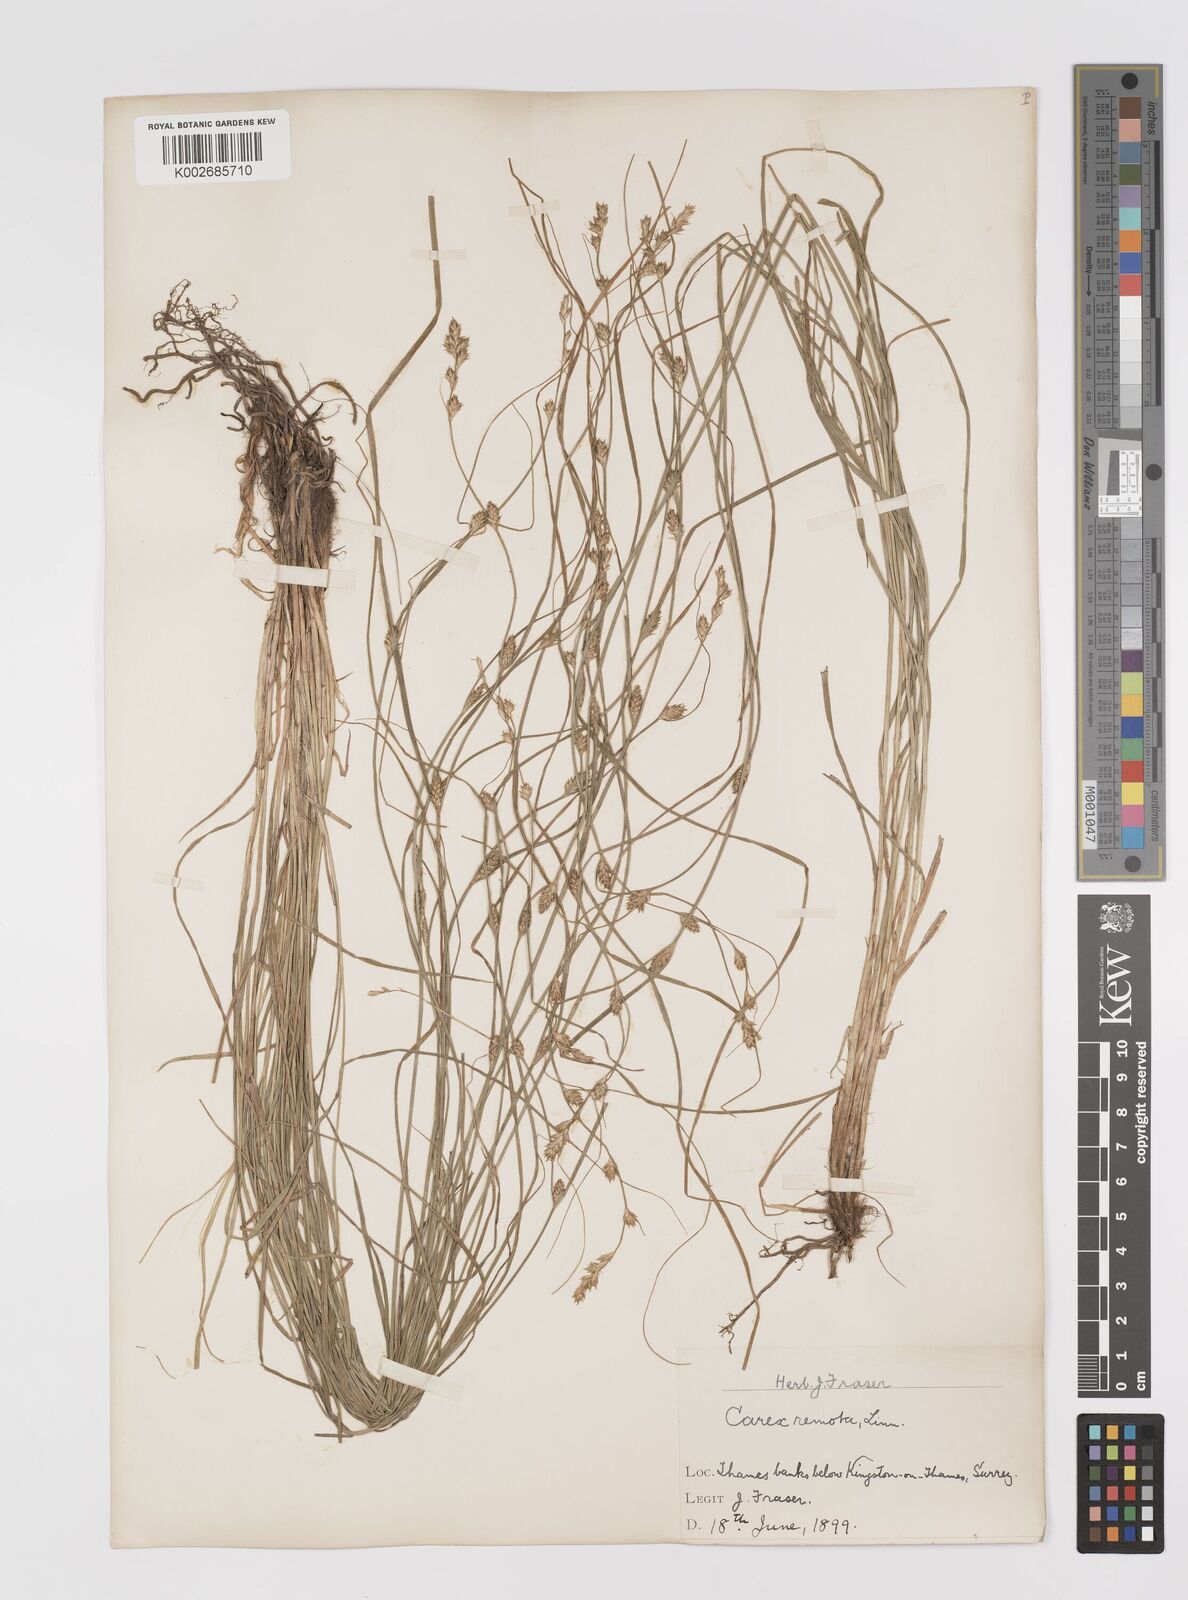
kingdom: Plantae
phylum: Tracheophyta
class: Liliopsida
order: Poales
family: Cyperaceae
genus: Carex
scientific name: Carex remota
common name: Remote sedge
